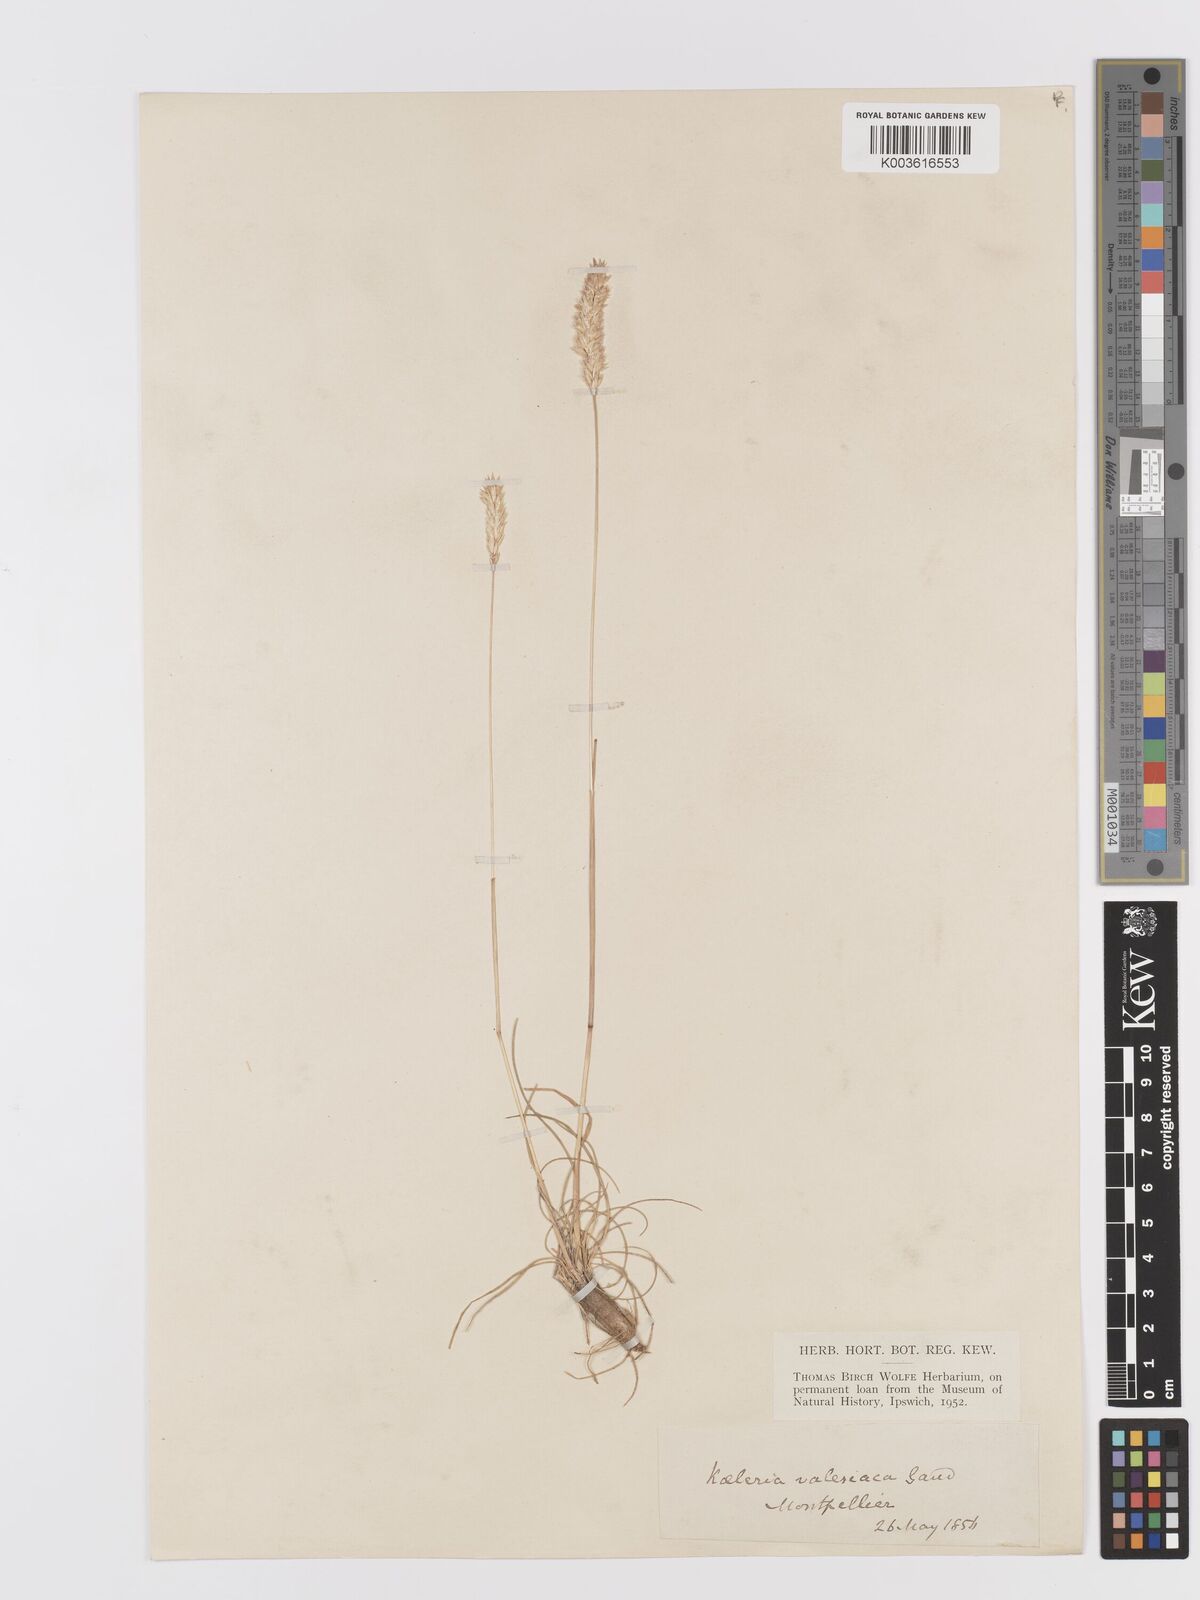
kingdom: Plantae
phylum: Tracheophyta
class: Liliopsida
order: Poales
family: Poaceae
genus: Koeleria
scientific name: Koeleria vallesiana
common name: Somerset hair-grass
